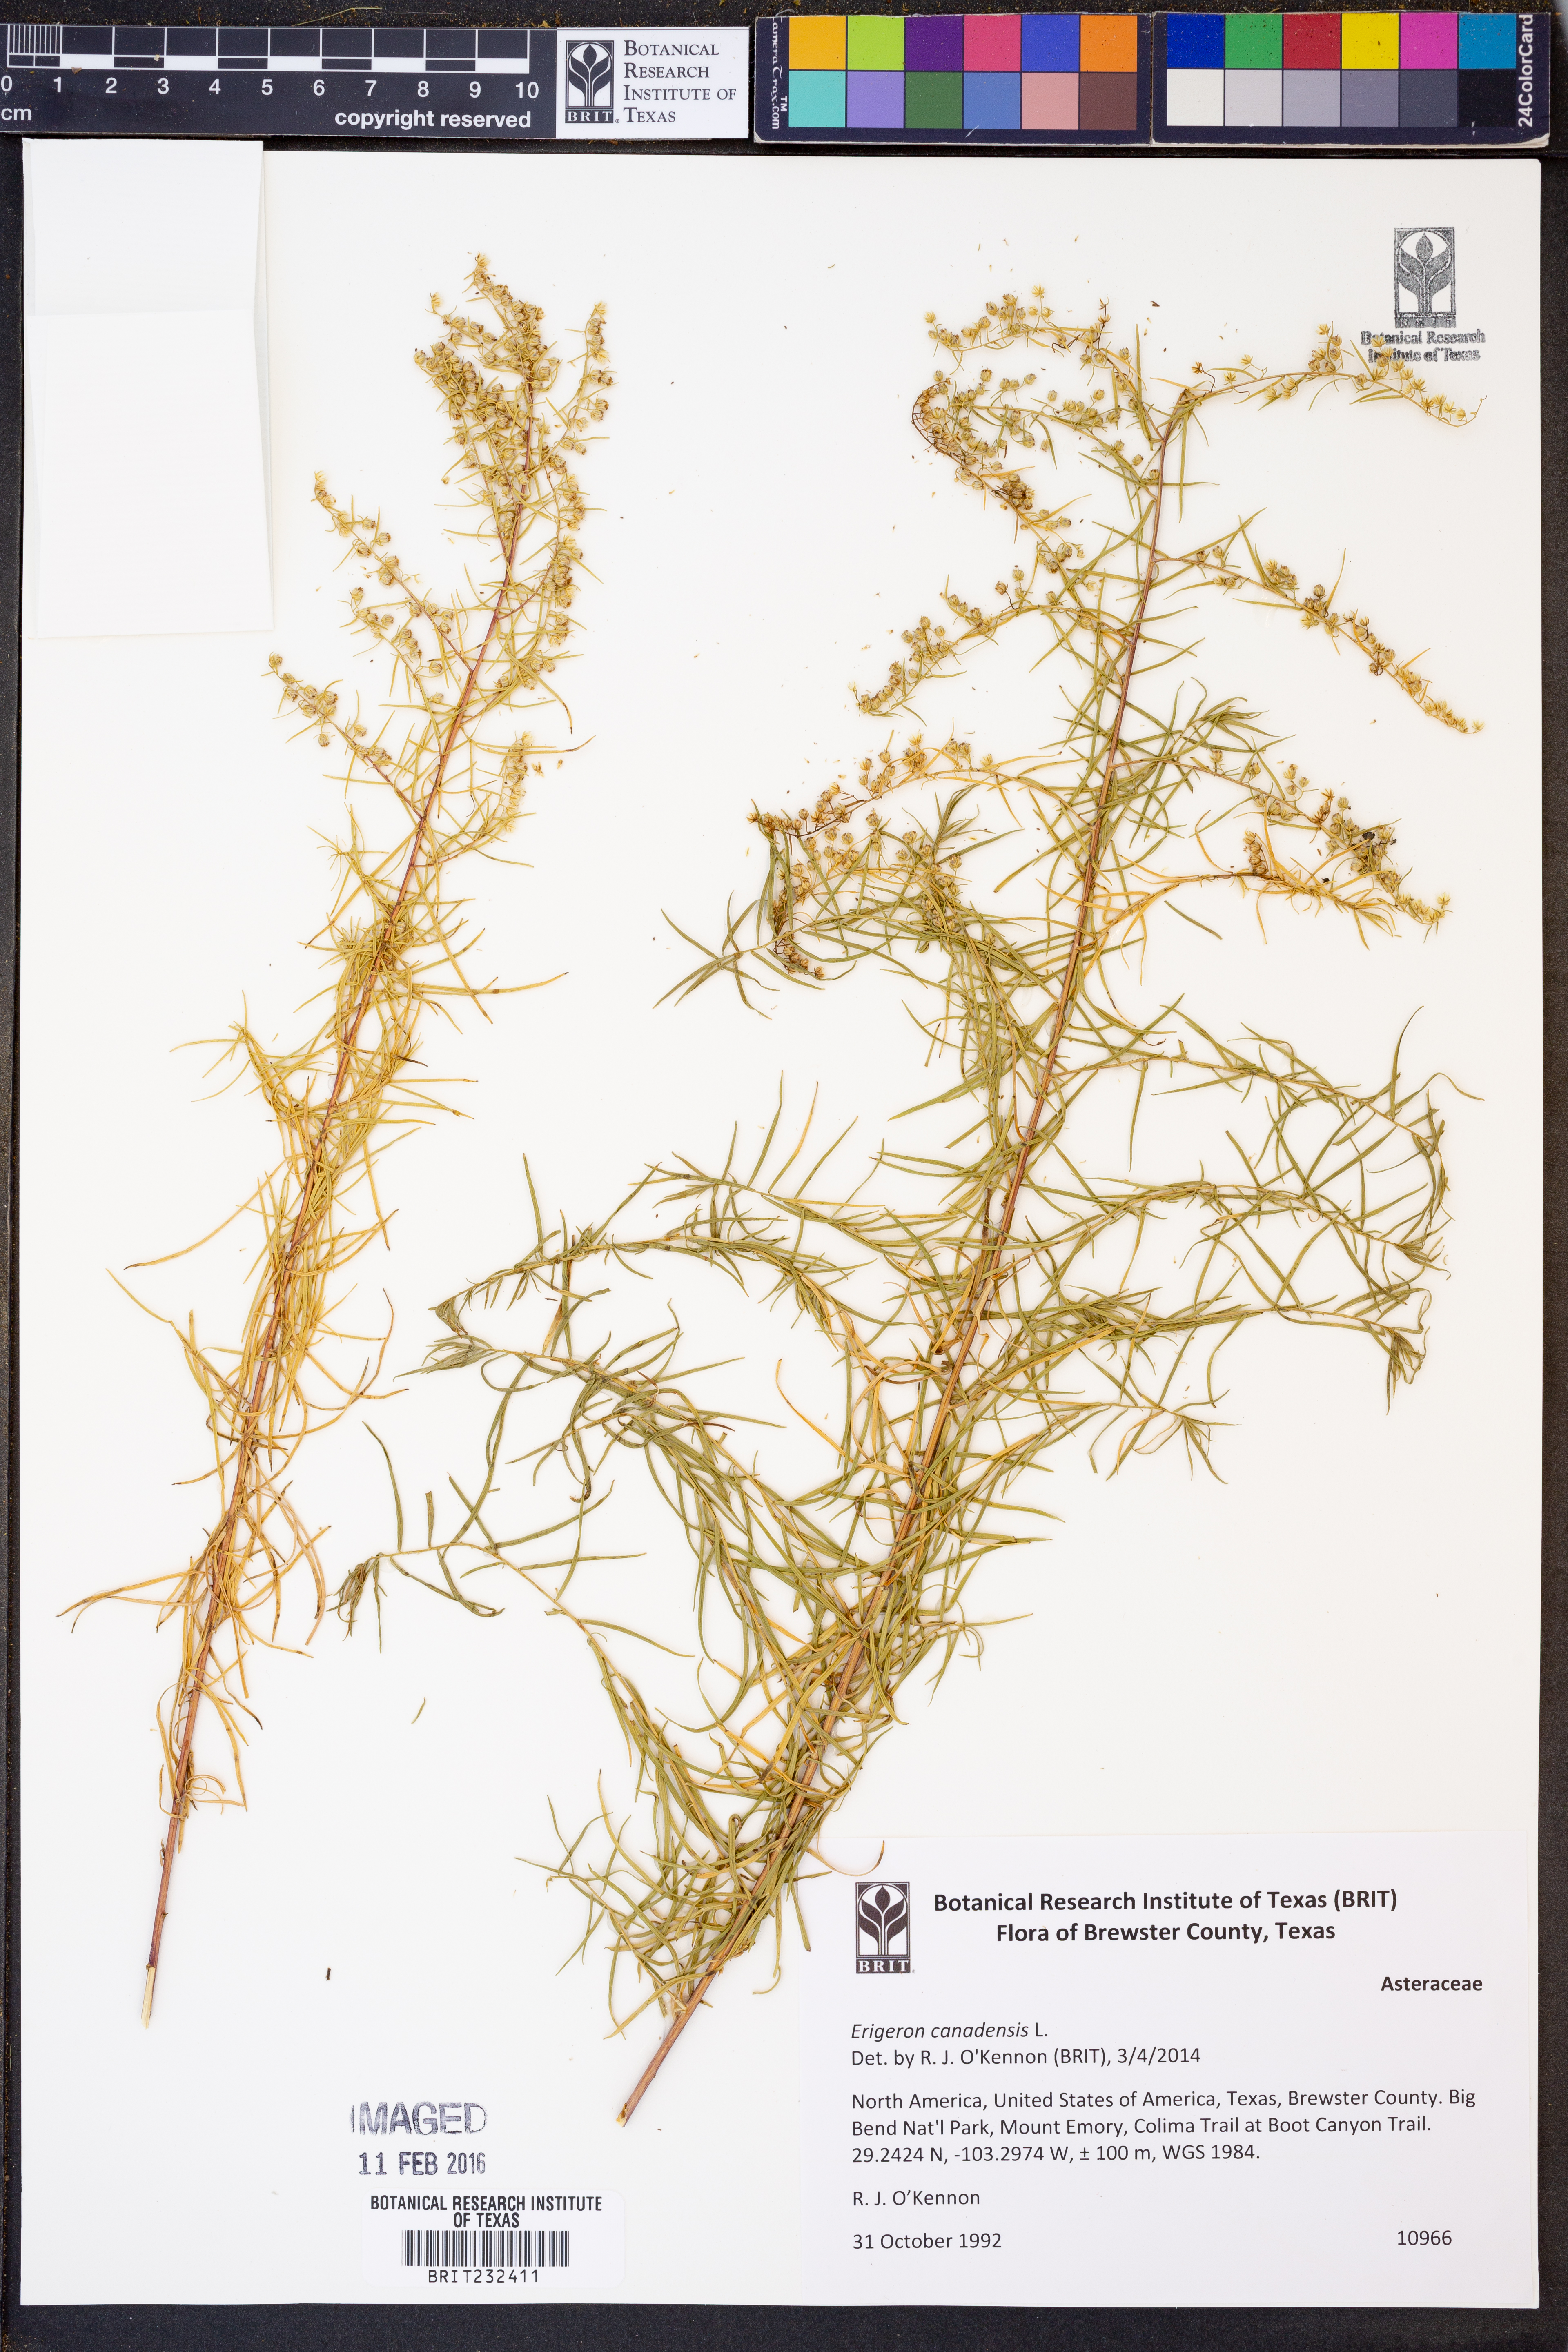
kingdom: Plantae
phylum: Tracheophyta
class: Magnoliopsida
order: Asterales
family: Asteraceae
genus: Erigeron
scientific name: Erigeron canadensis
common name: Canadian fleabane
